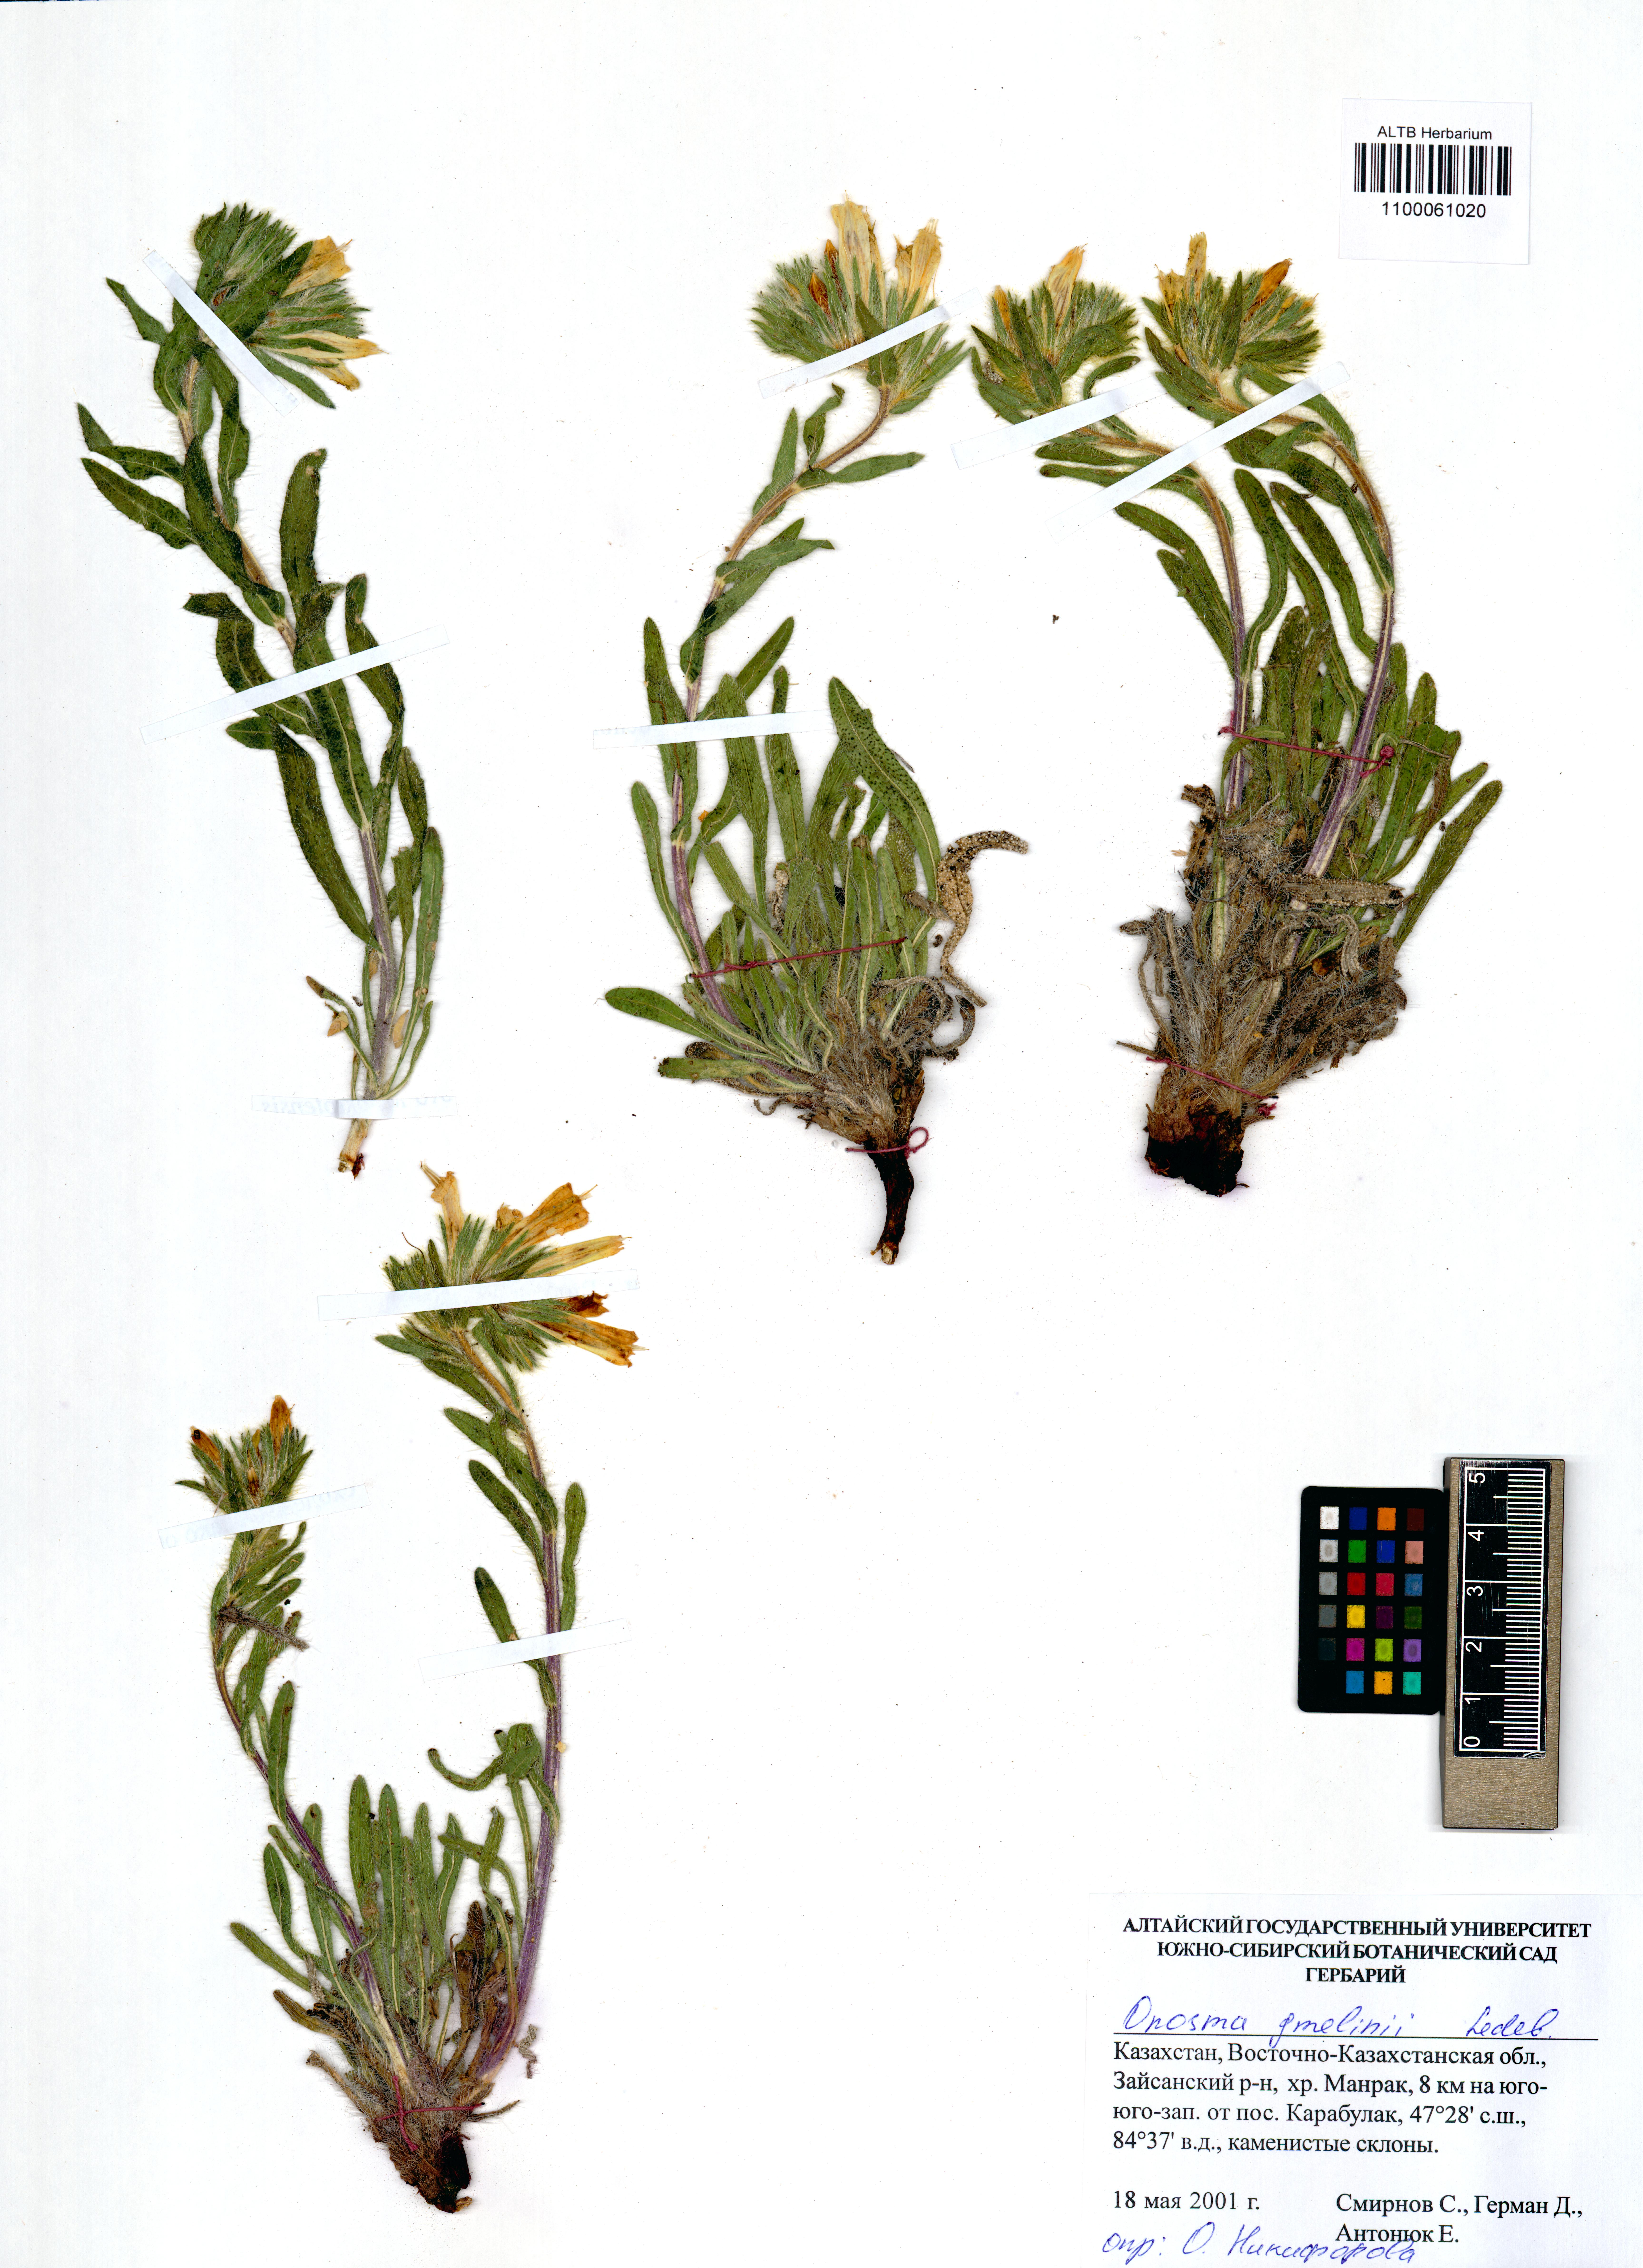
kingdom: Plantae
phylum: Tracheophyta
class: Magnoliopsida
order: Boraginales
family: Boraginaceae
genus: Onosma
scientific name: Onosma gmelinii
